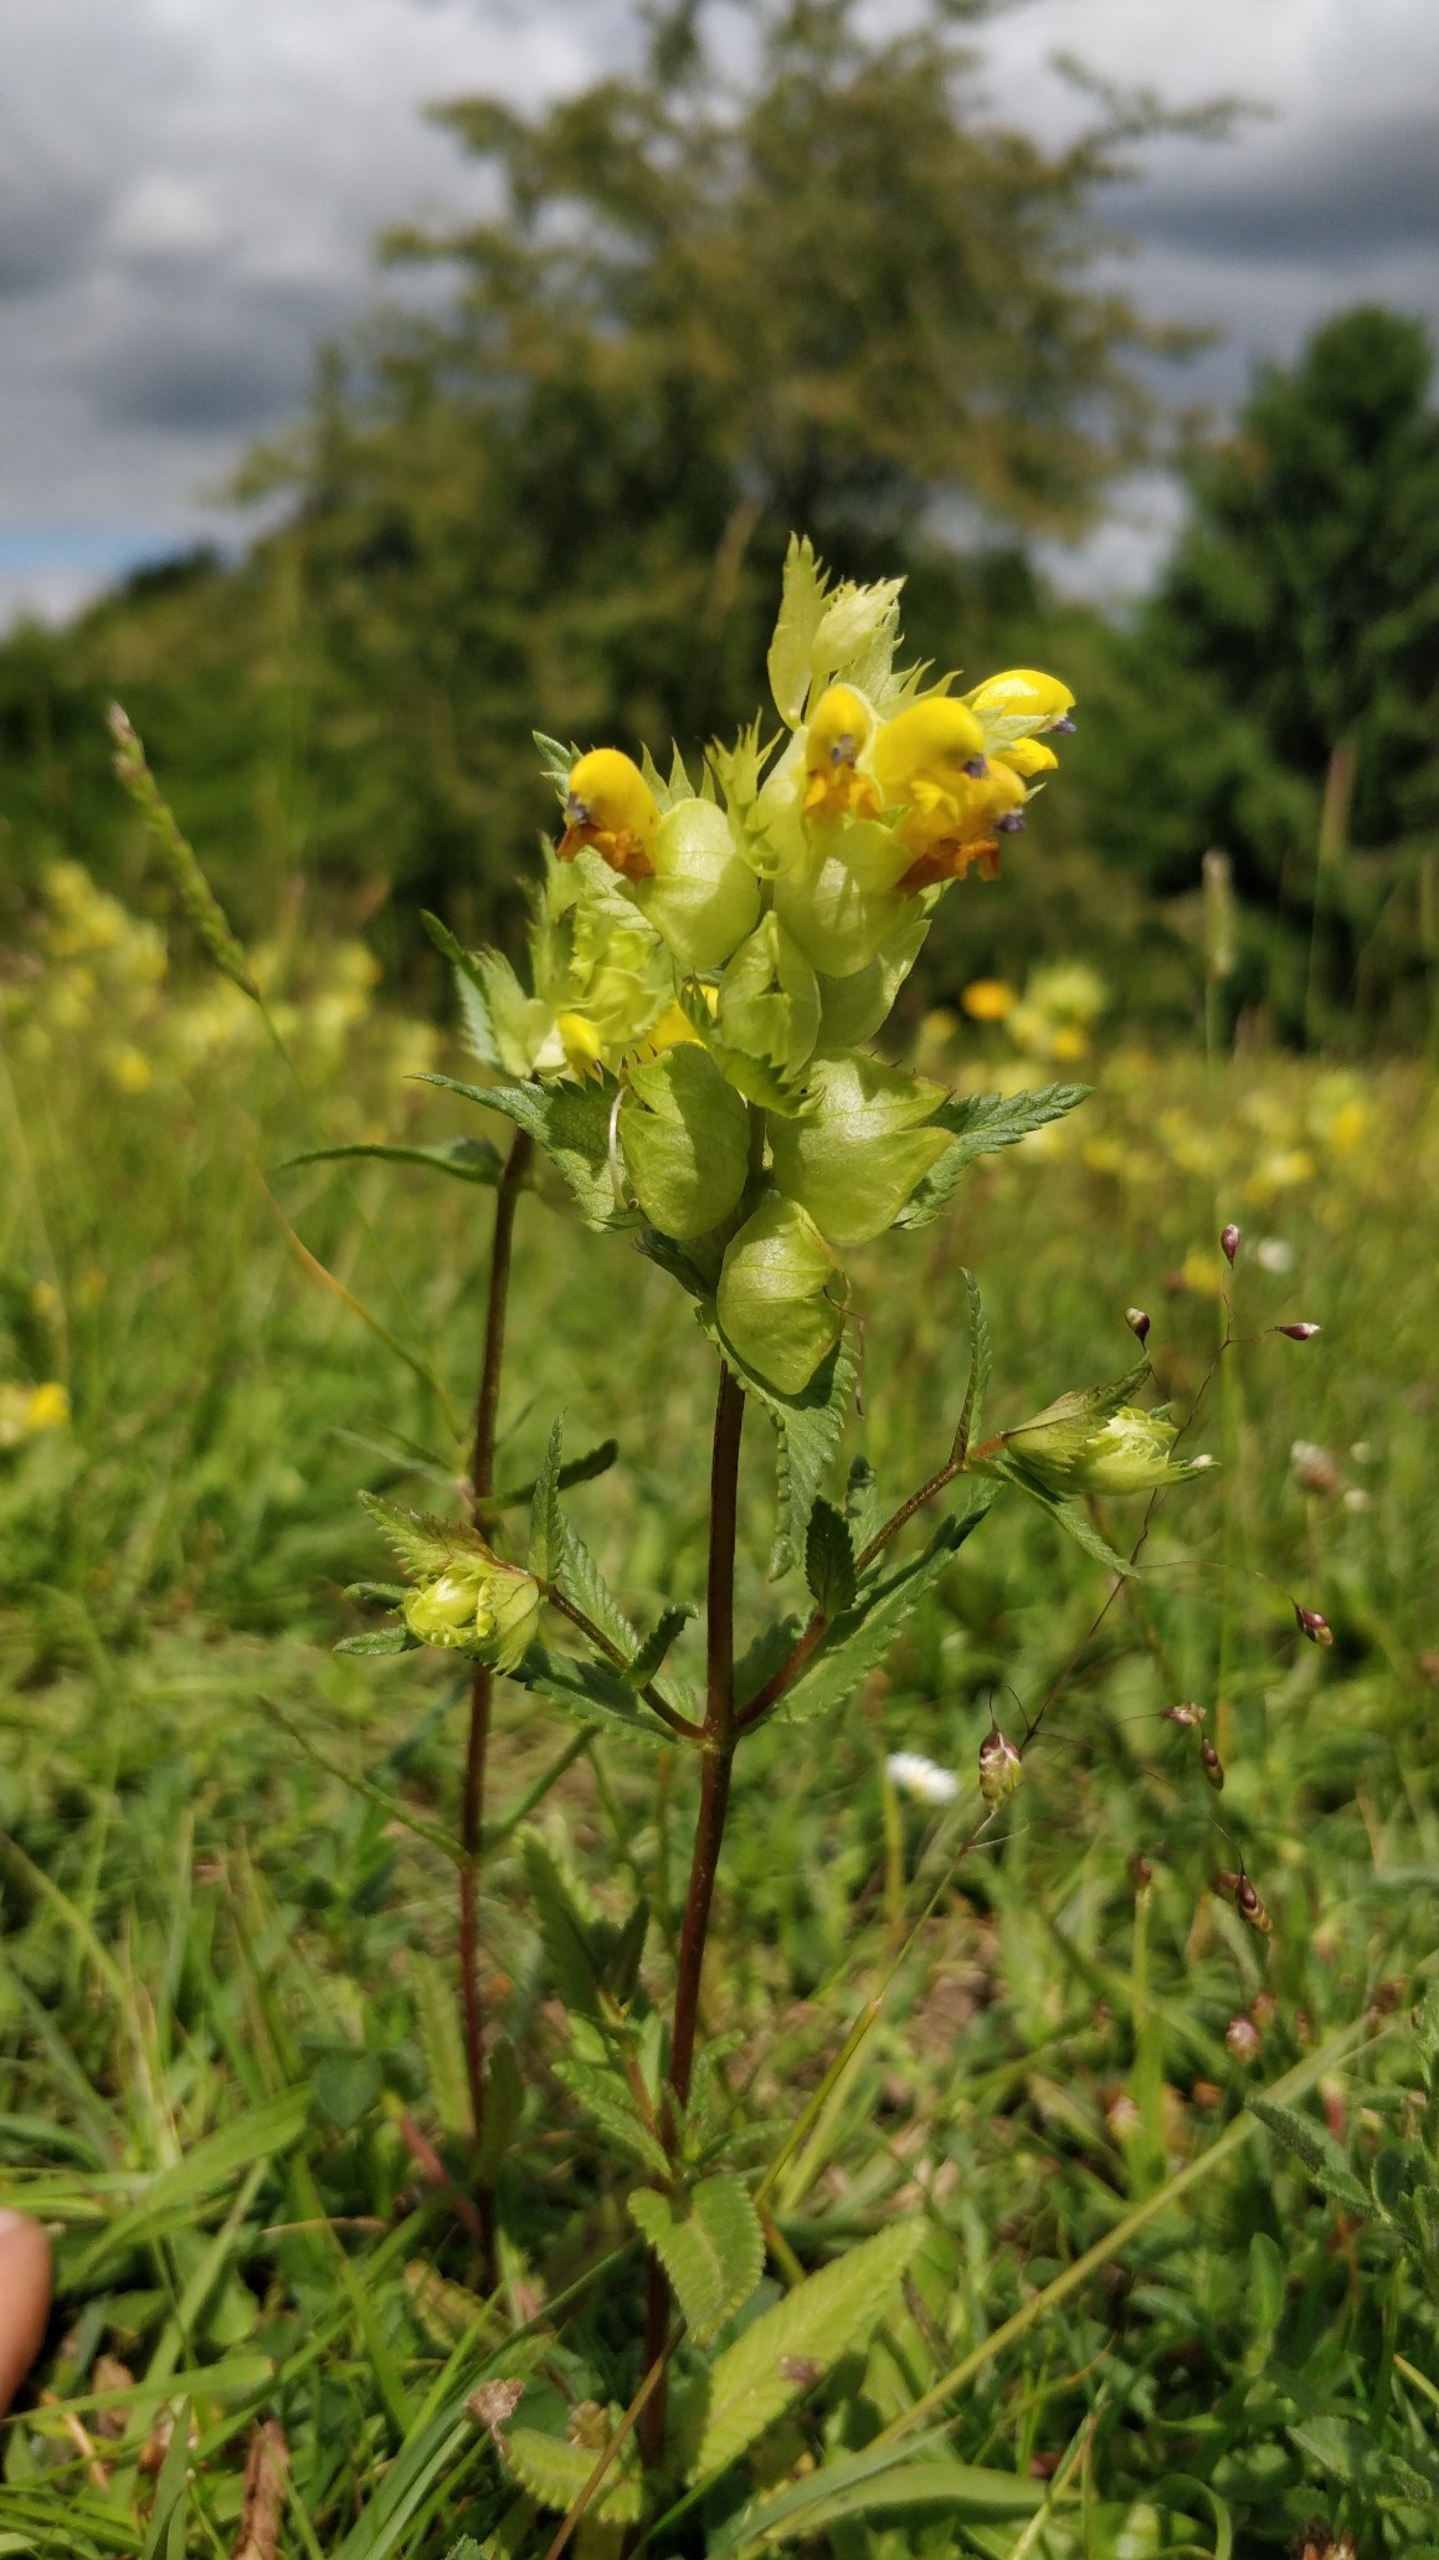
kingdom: Plantae
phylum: Tracheophyta
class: Magnoliopsida
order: Lamiales
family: Orobanchaceae
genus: Rhinanthus
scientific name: Rhinanthus
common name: Stor skjaller
